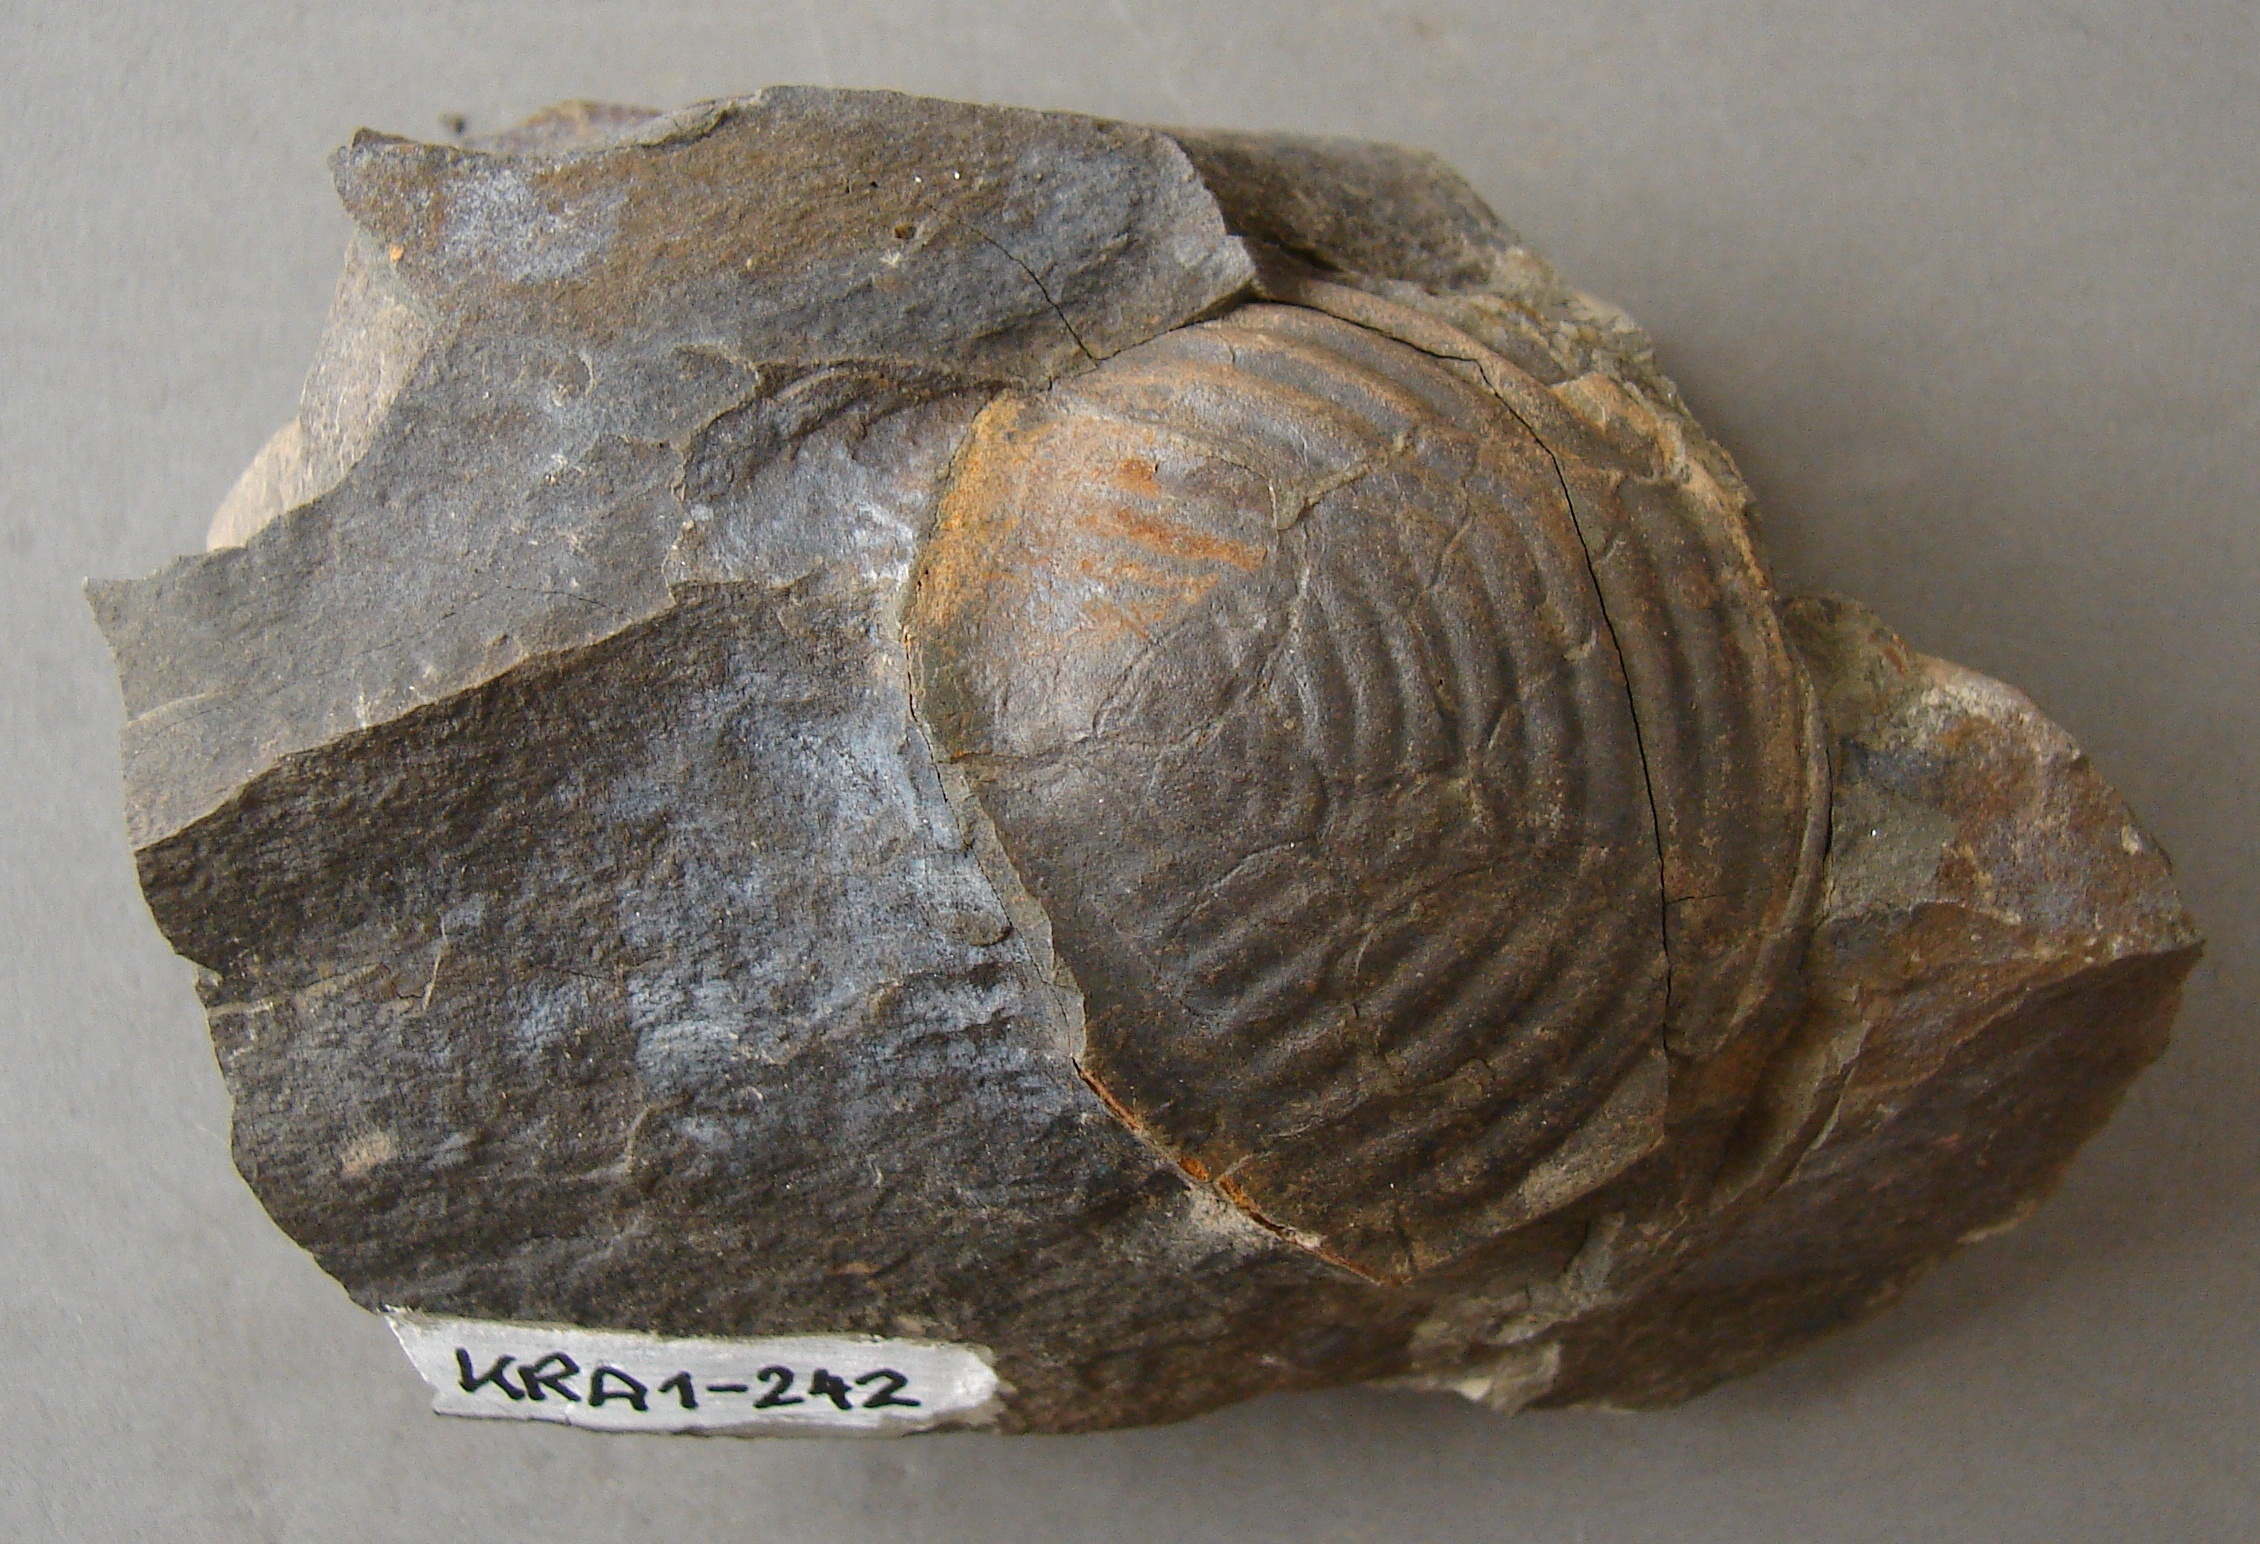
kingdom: Animalia
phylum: Arthropoda
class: Trilobita
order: Phacopida
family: Homalonotidae
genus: Parahomalonotus
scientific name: Parahomalonotus
